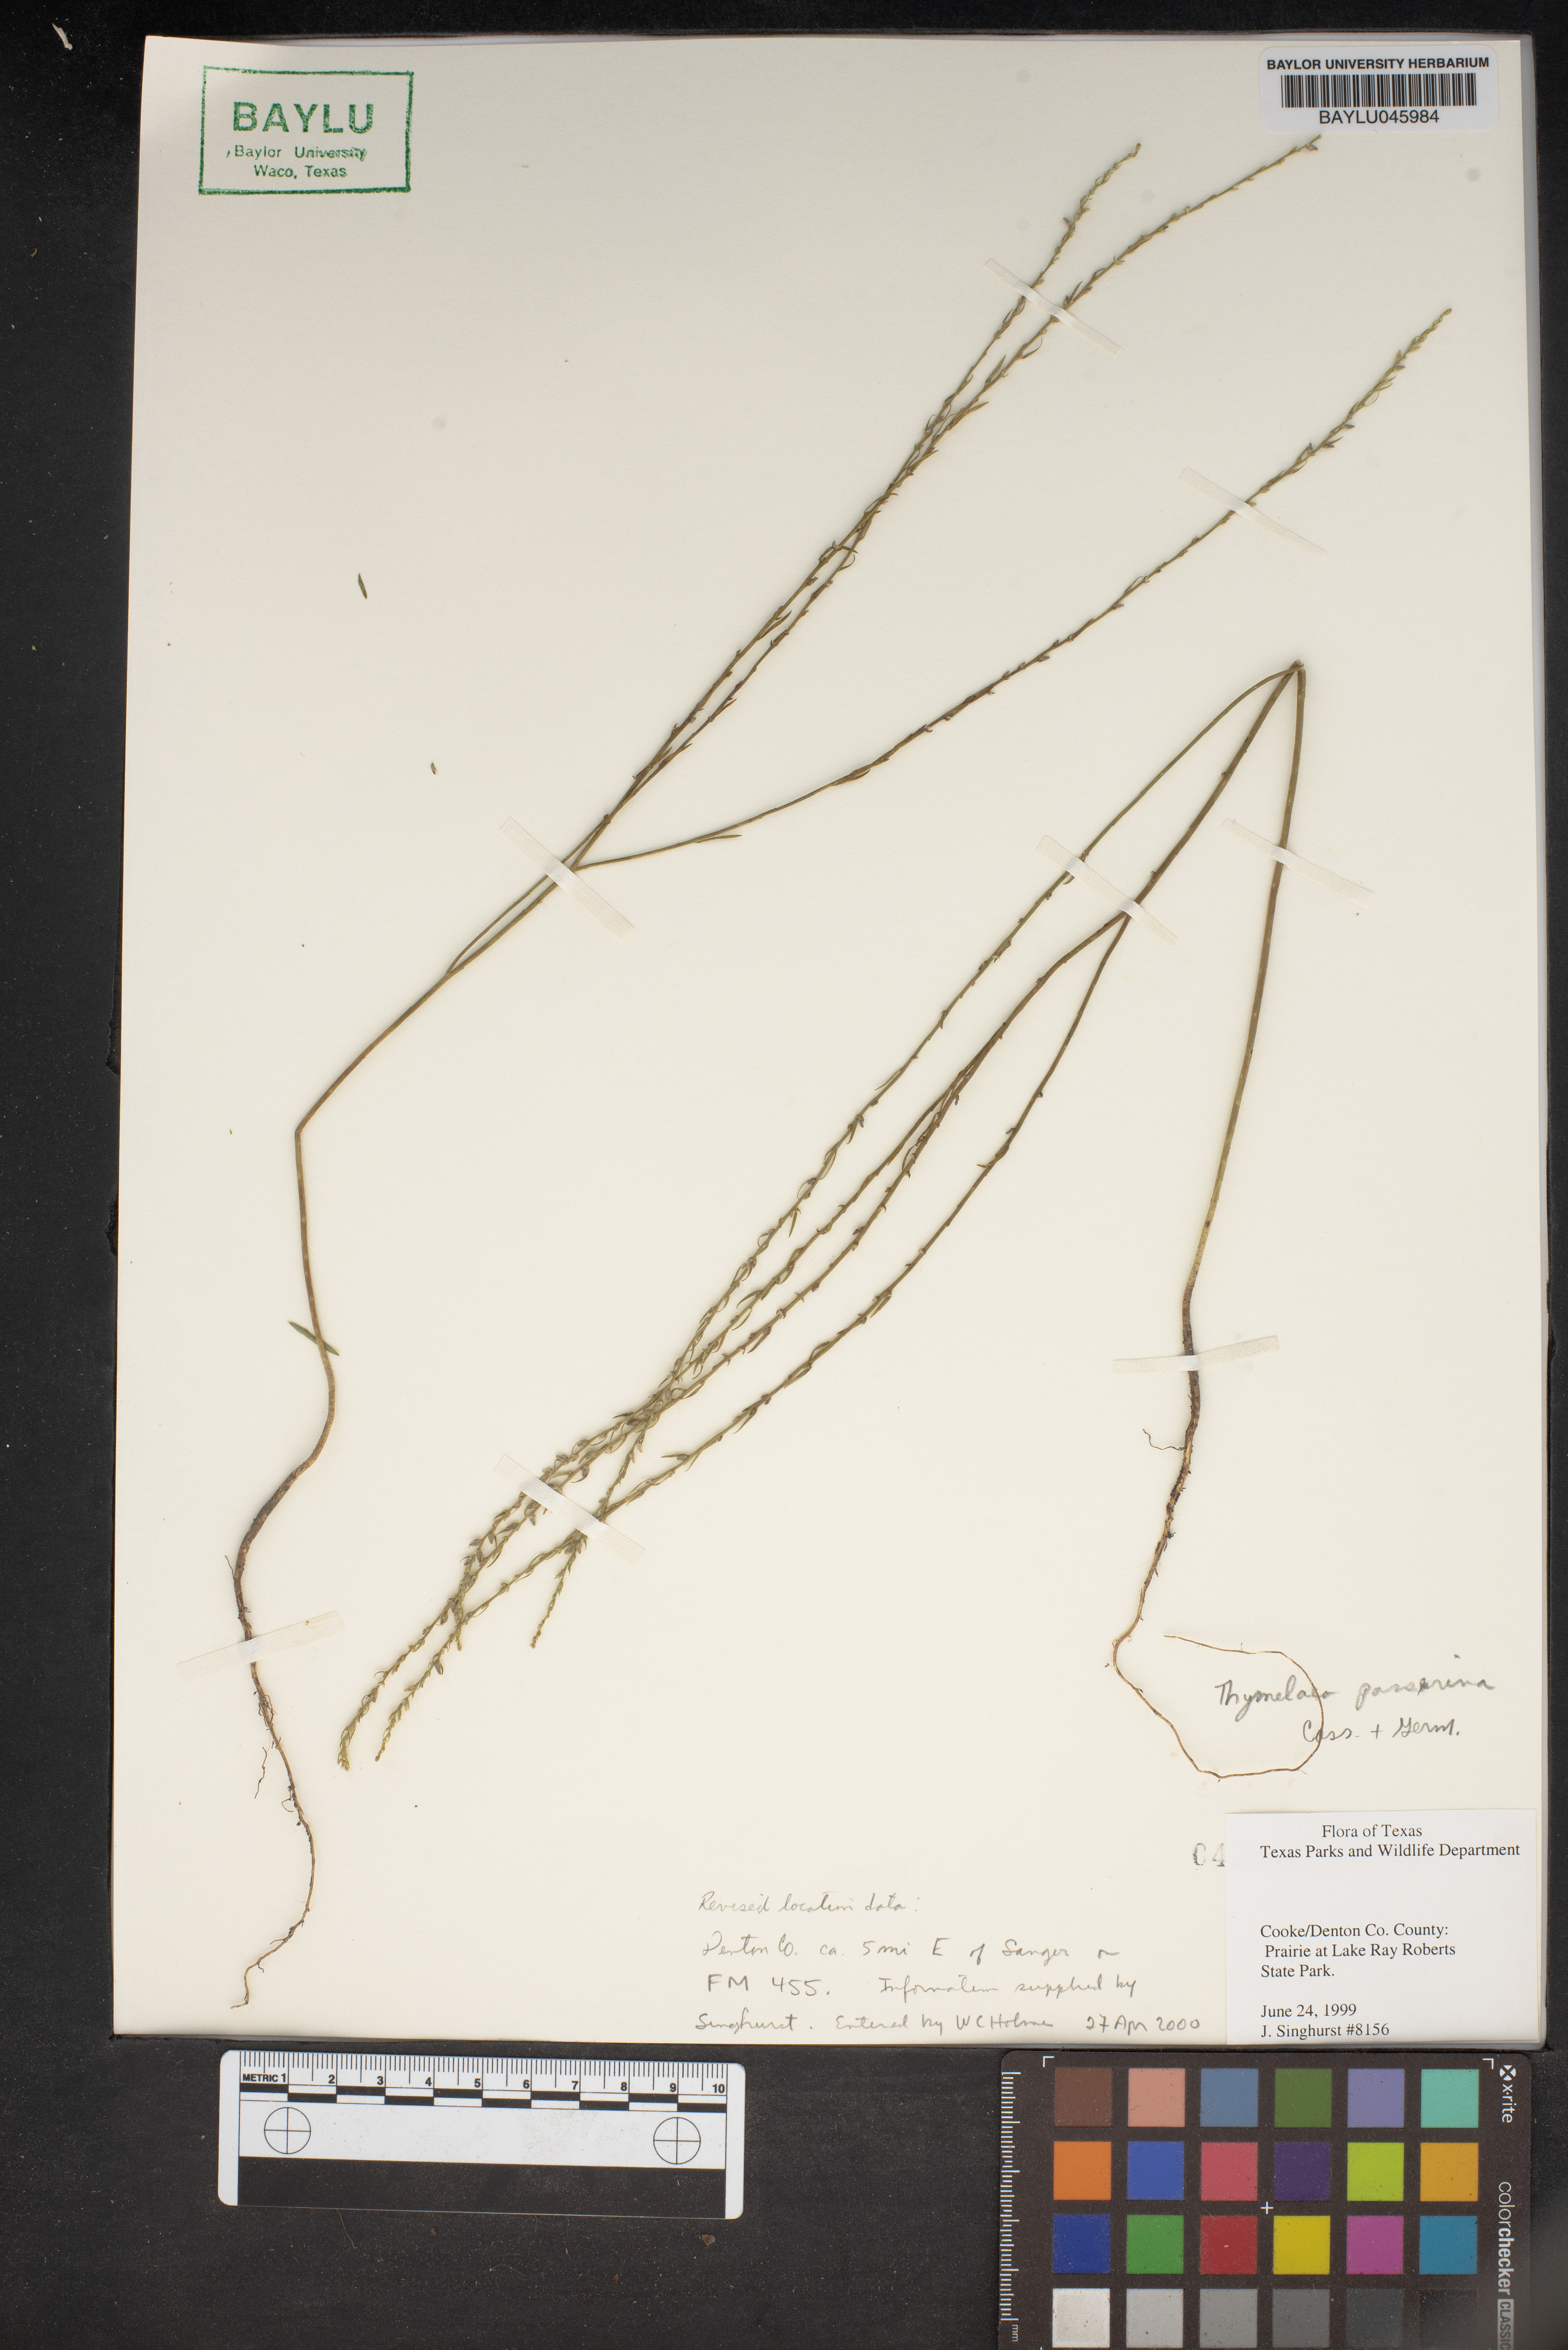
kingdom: Plantae
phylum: Tracheophyta
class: Magnoliopsida
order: Malvales
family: Thymelaeaceae
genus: Thymelaea
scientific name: Thymelaea passerina
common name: Annual thymelaea
